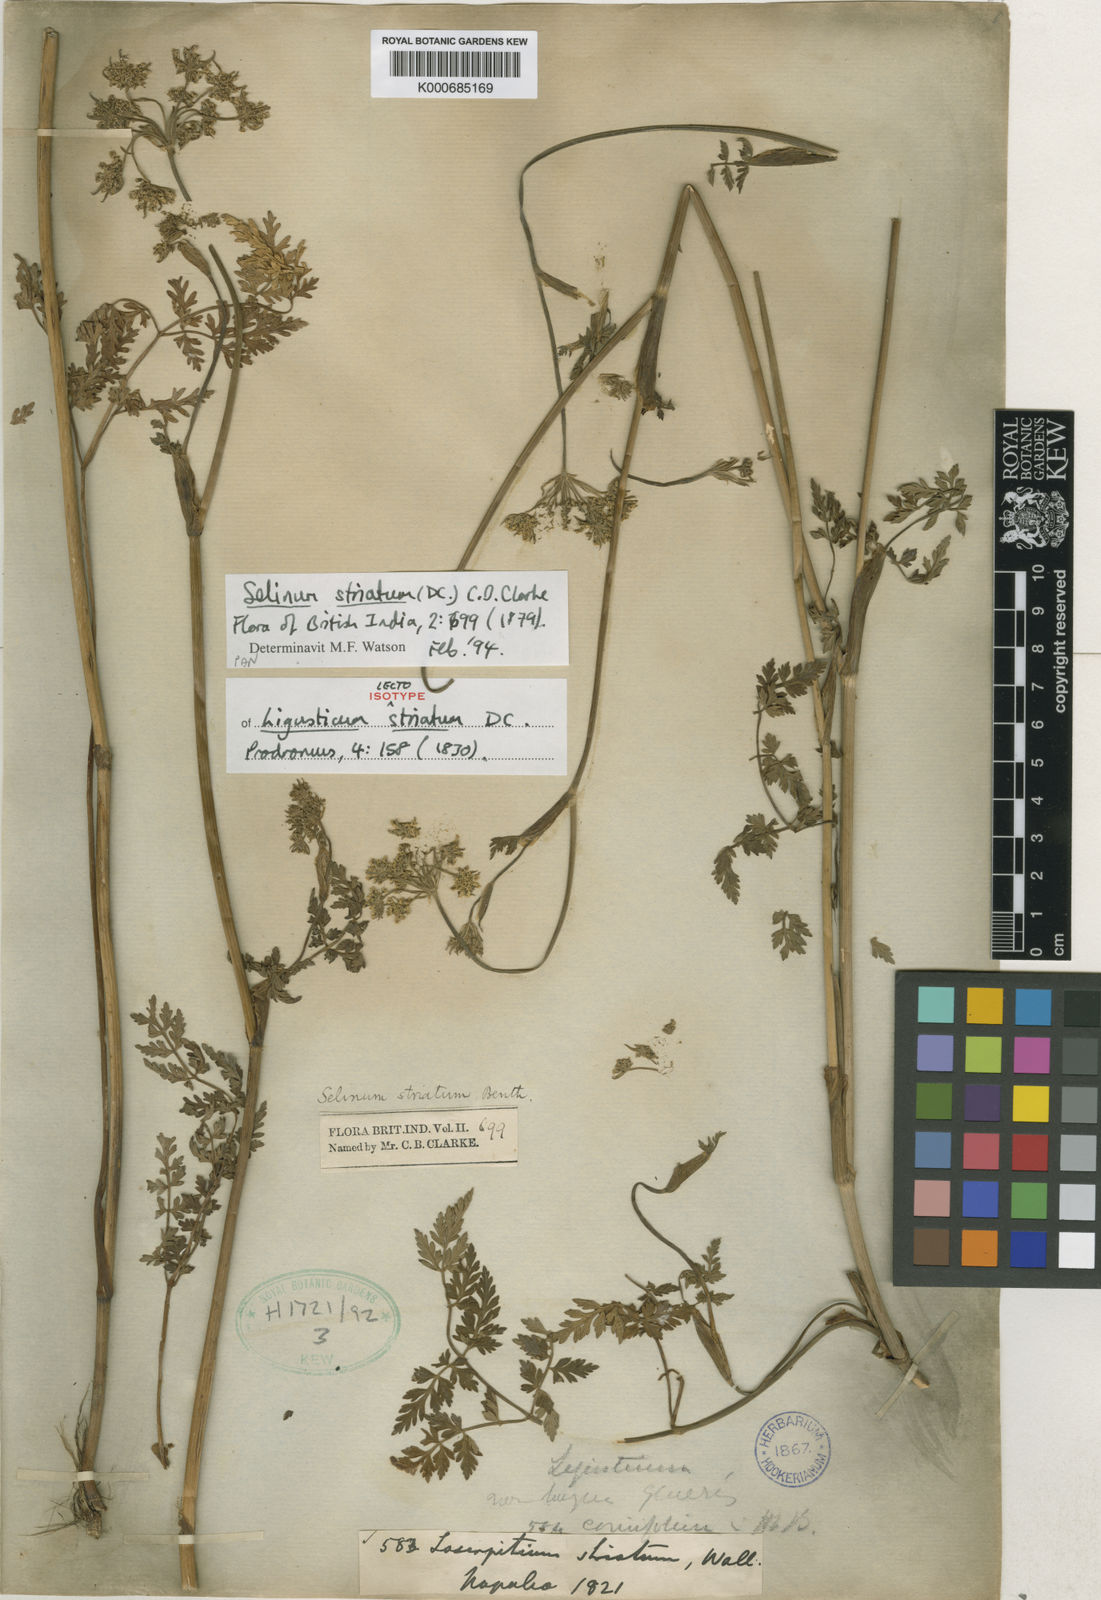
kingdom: Plantae
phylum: Tracheophyta
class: Magnoliopsida
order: Apiales
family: Apiaceae
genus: Oreocome
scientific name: Oreocome striata
